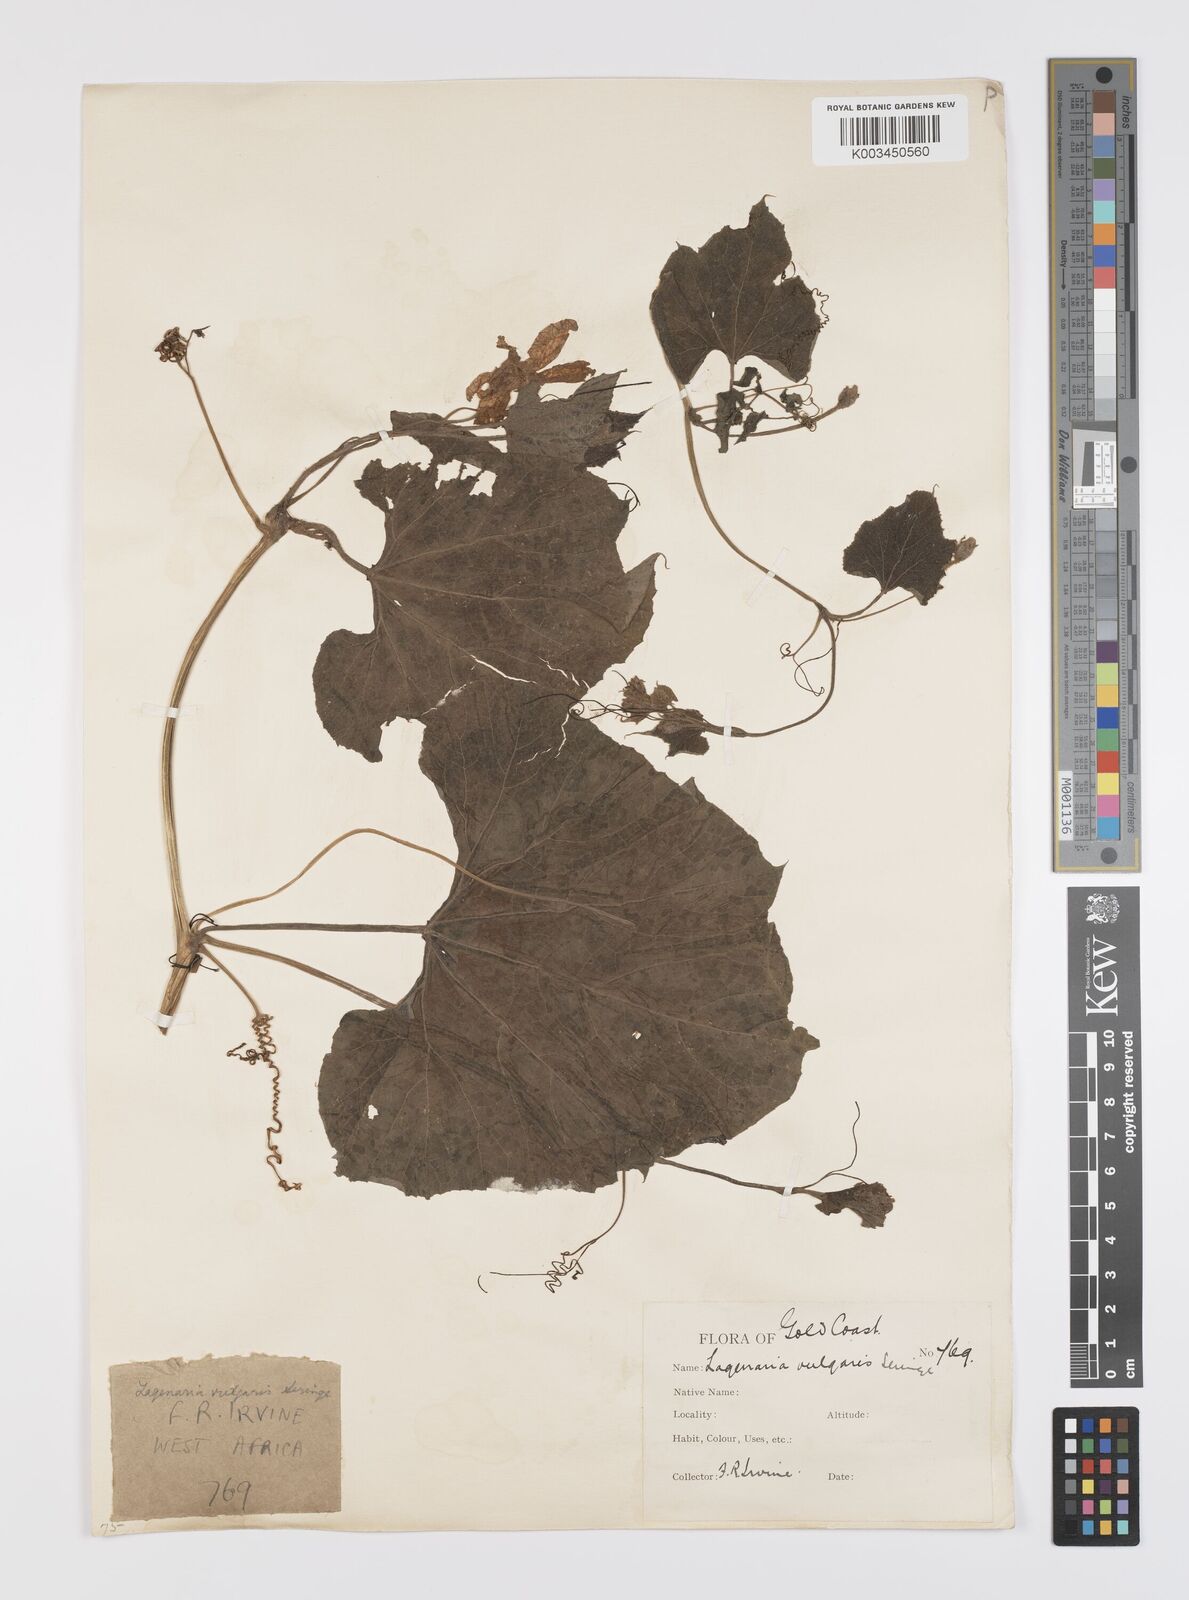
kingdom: Plantae
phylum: Tracheophyta
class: Magnoliopsida
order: Cucurbitales
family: Cucurbitaceae
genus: Lagenaria
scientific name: Lagenaria siceraria
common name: Bottle gourd
